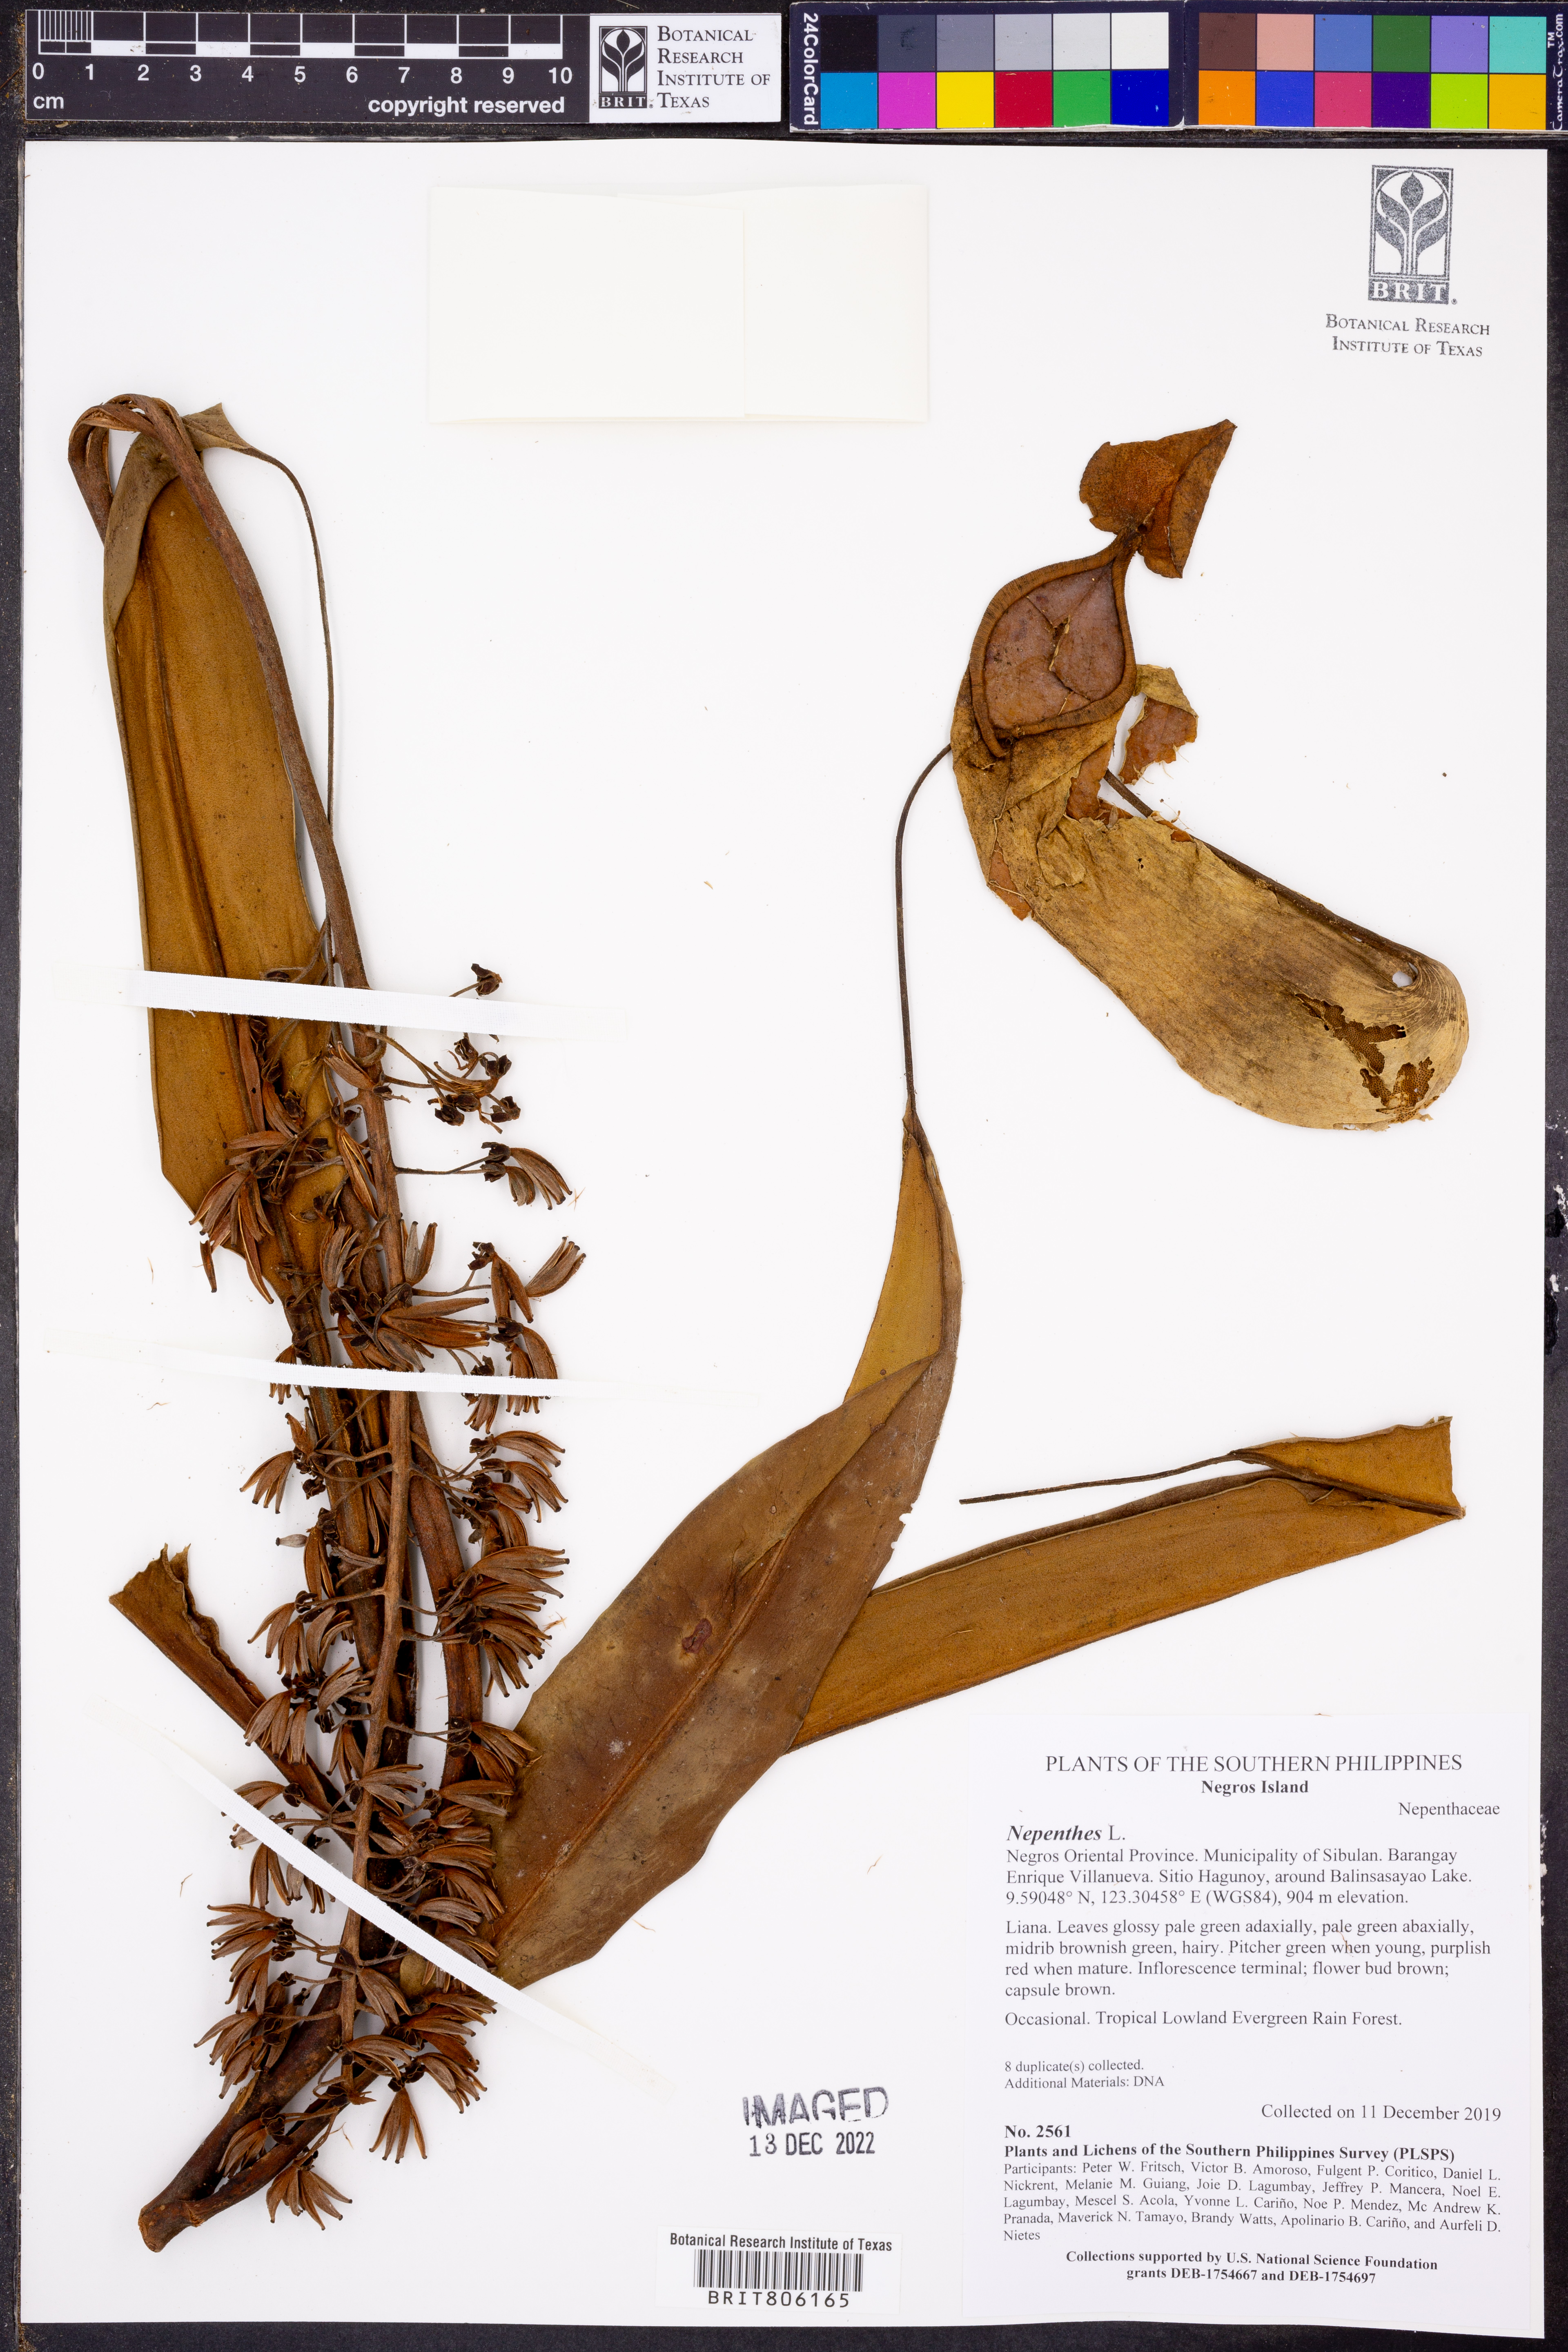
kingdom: Plantae
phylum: Tracheophyta
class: Magnoliopsida
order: Caryophyllales
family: Nepenthaceae
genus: Nepenthes
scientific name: Nepenthes
